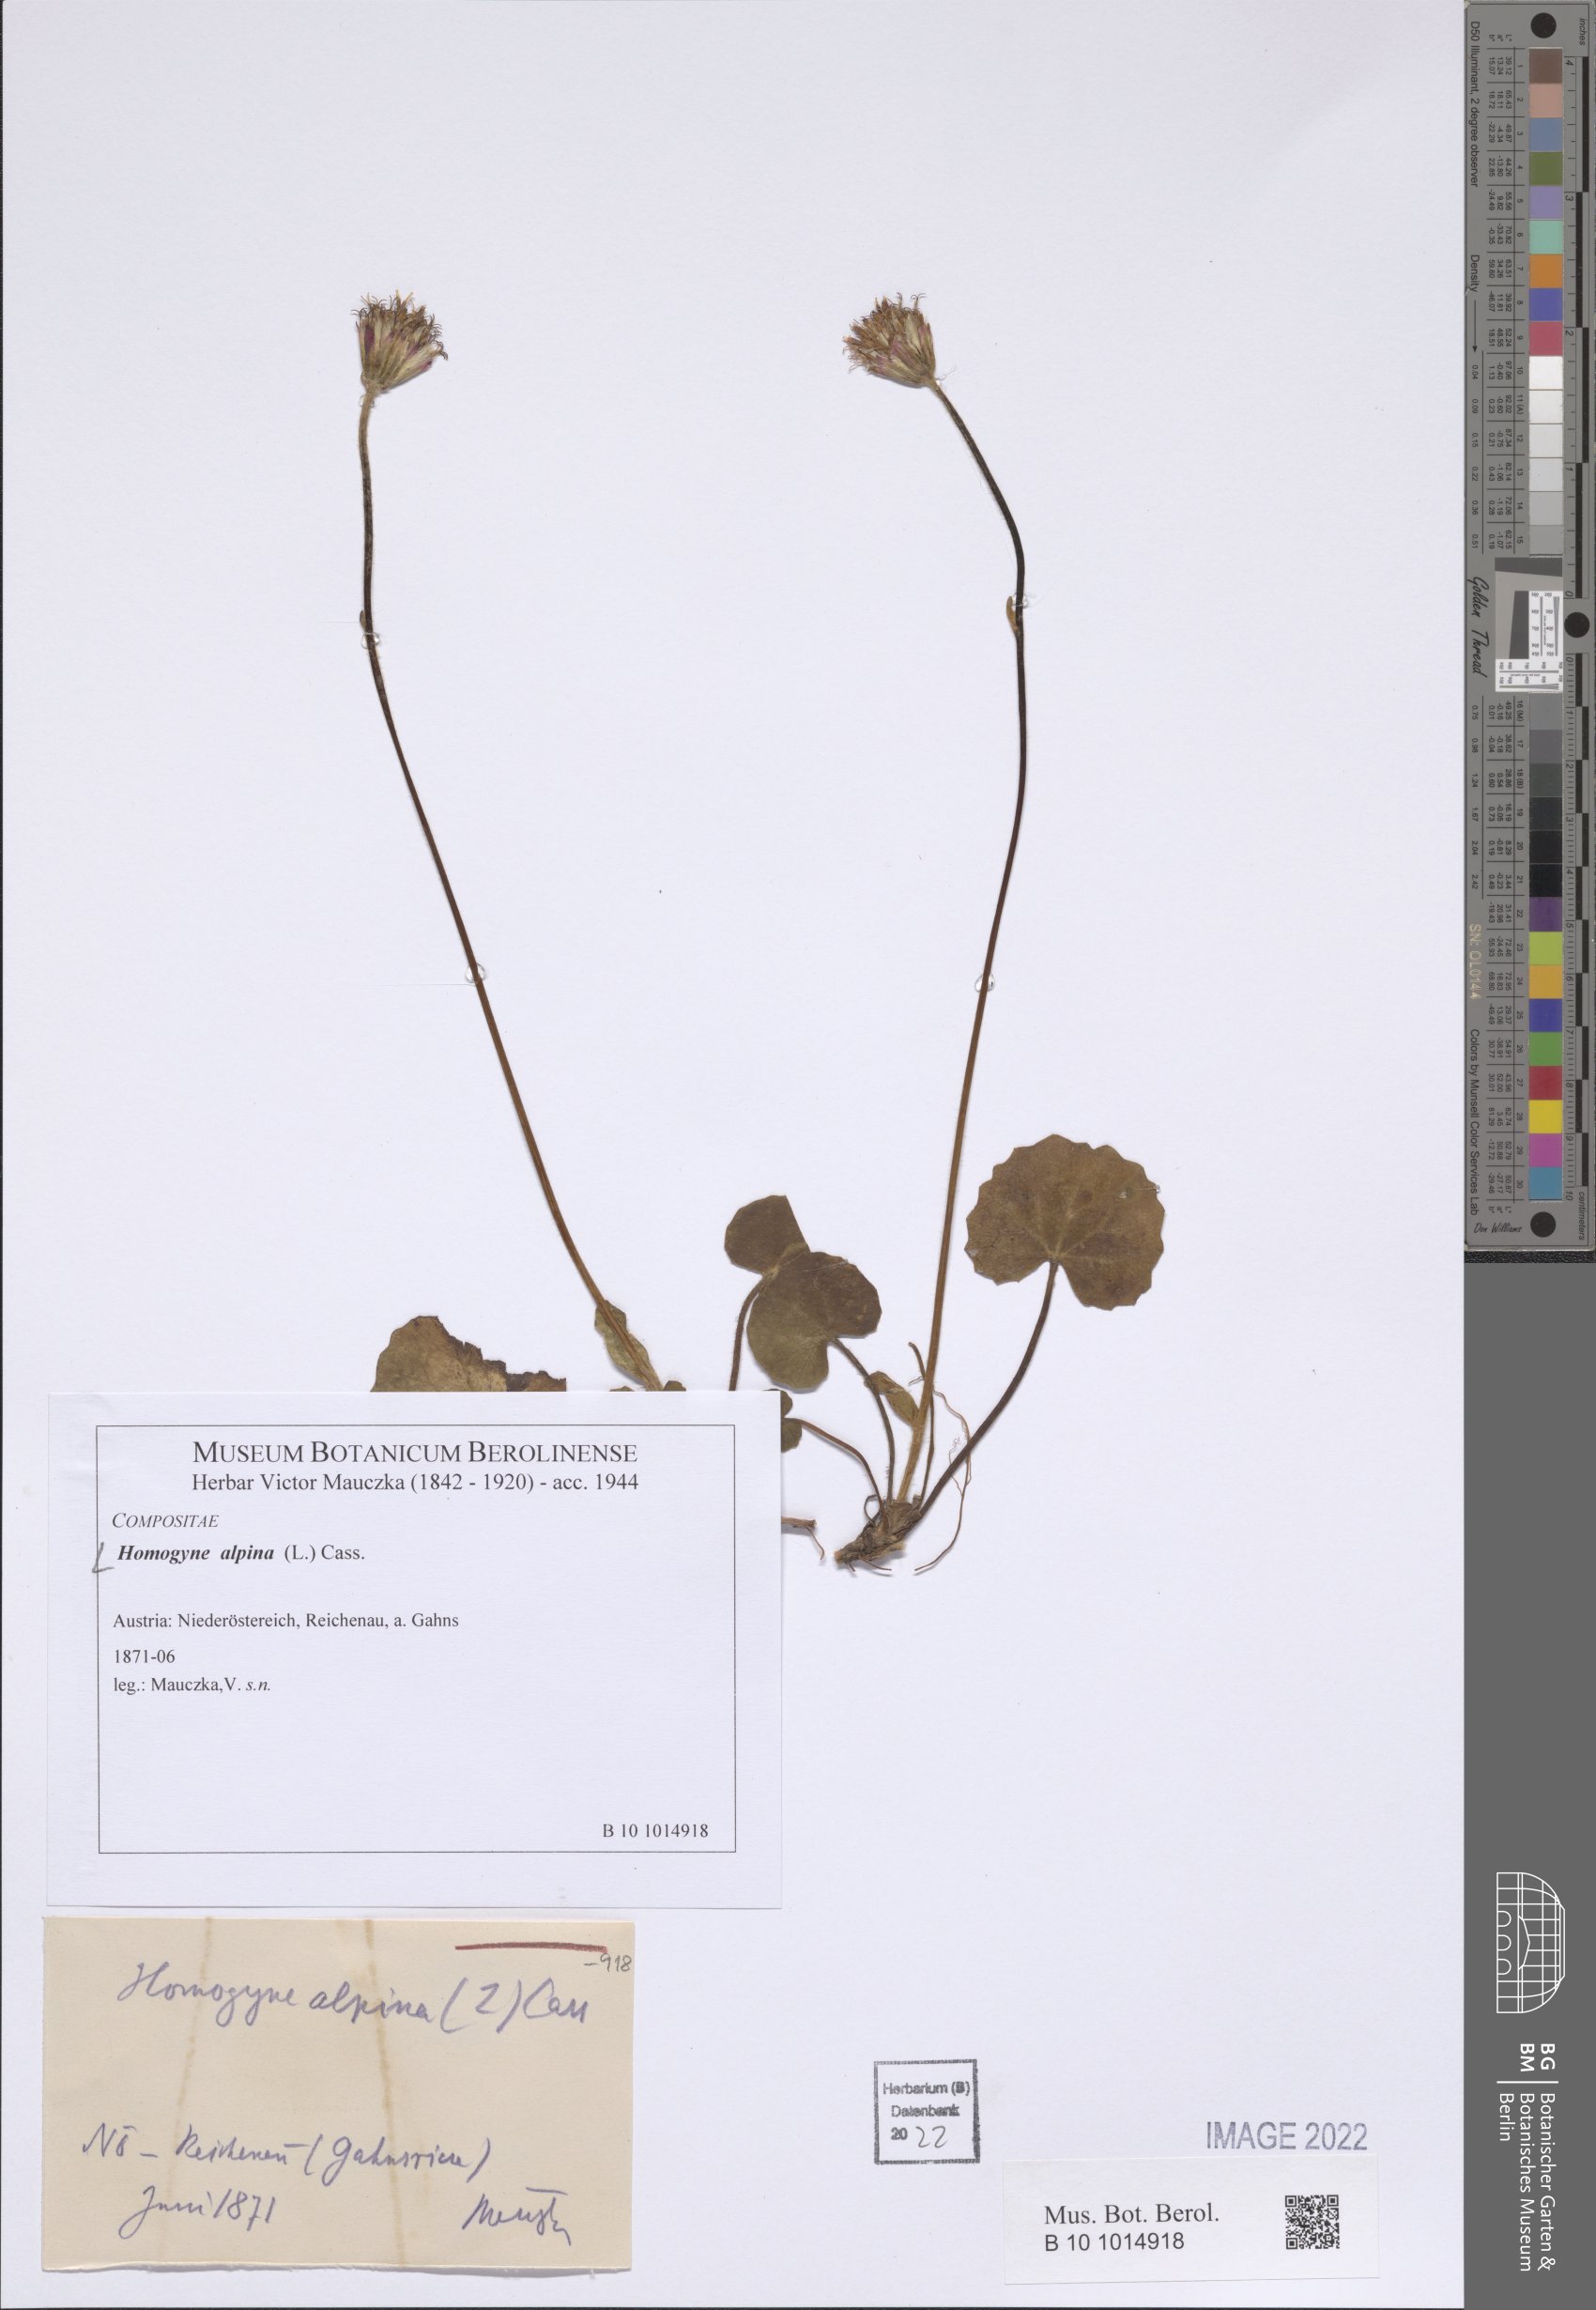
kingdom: Plantae
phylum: Tracheophyta
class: Magnoliopsida
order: Asterales
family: Asteraceae
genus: Homogyne
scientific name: Homogyne alpina
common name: Purple colt's-foot
